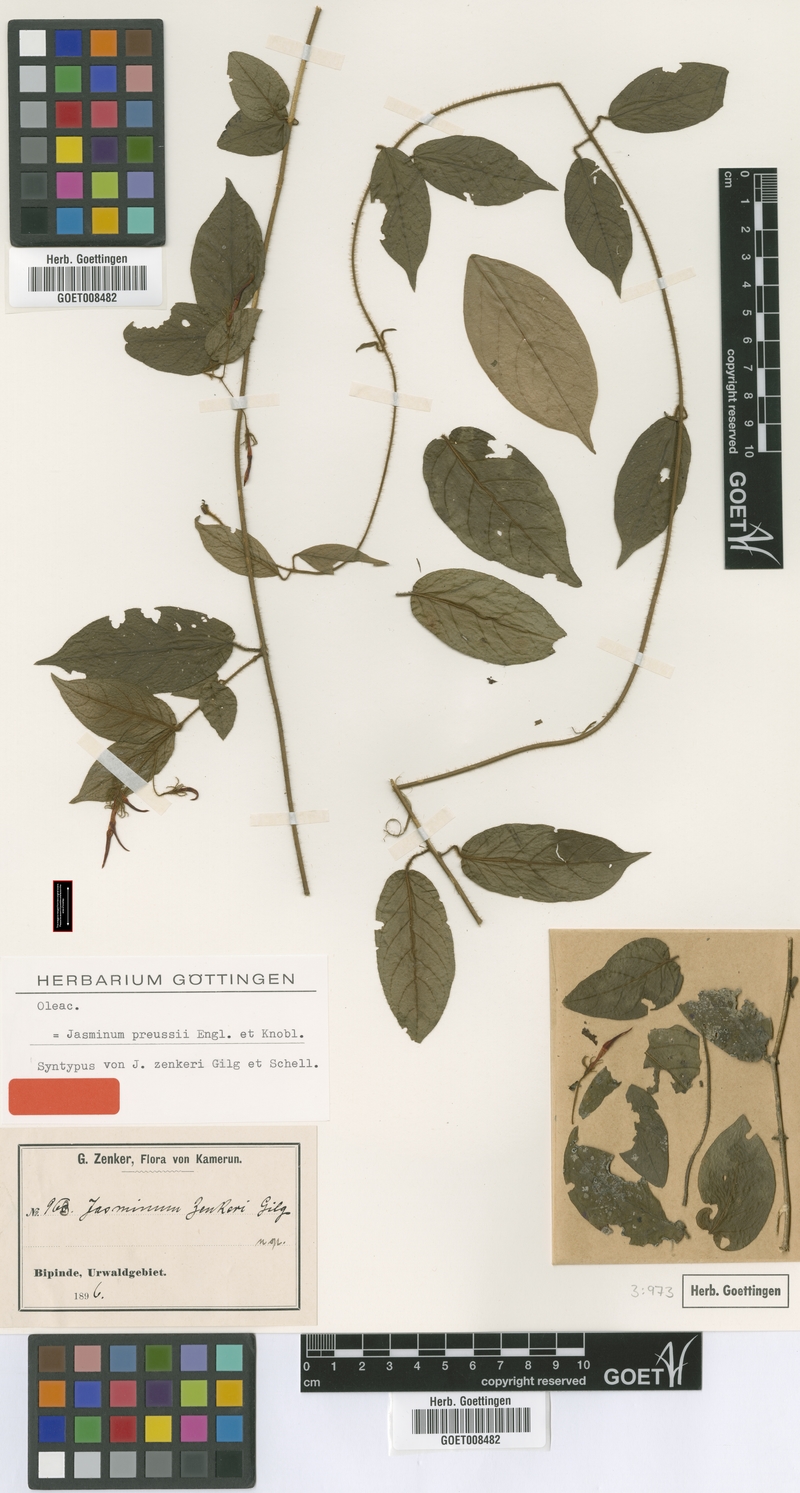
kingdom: Plantae
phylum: Tracheophyta
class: Magnoliopsida
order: Lamiales
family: Oleaceae
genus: Jasminum
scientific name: Jasminum preussii
